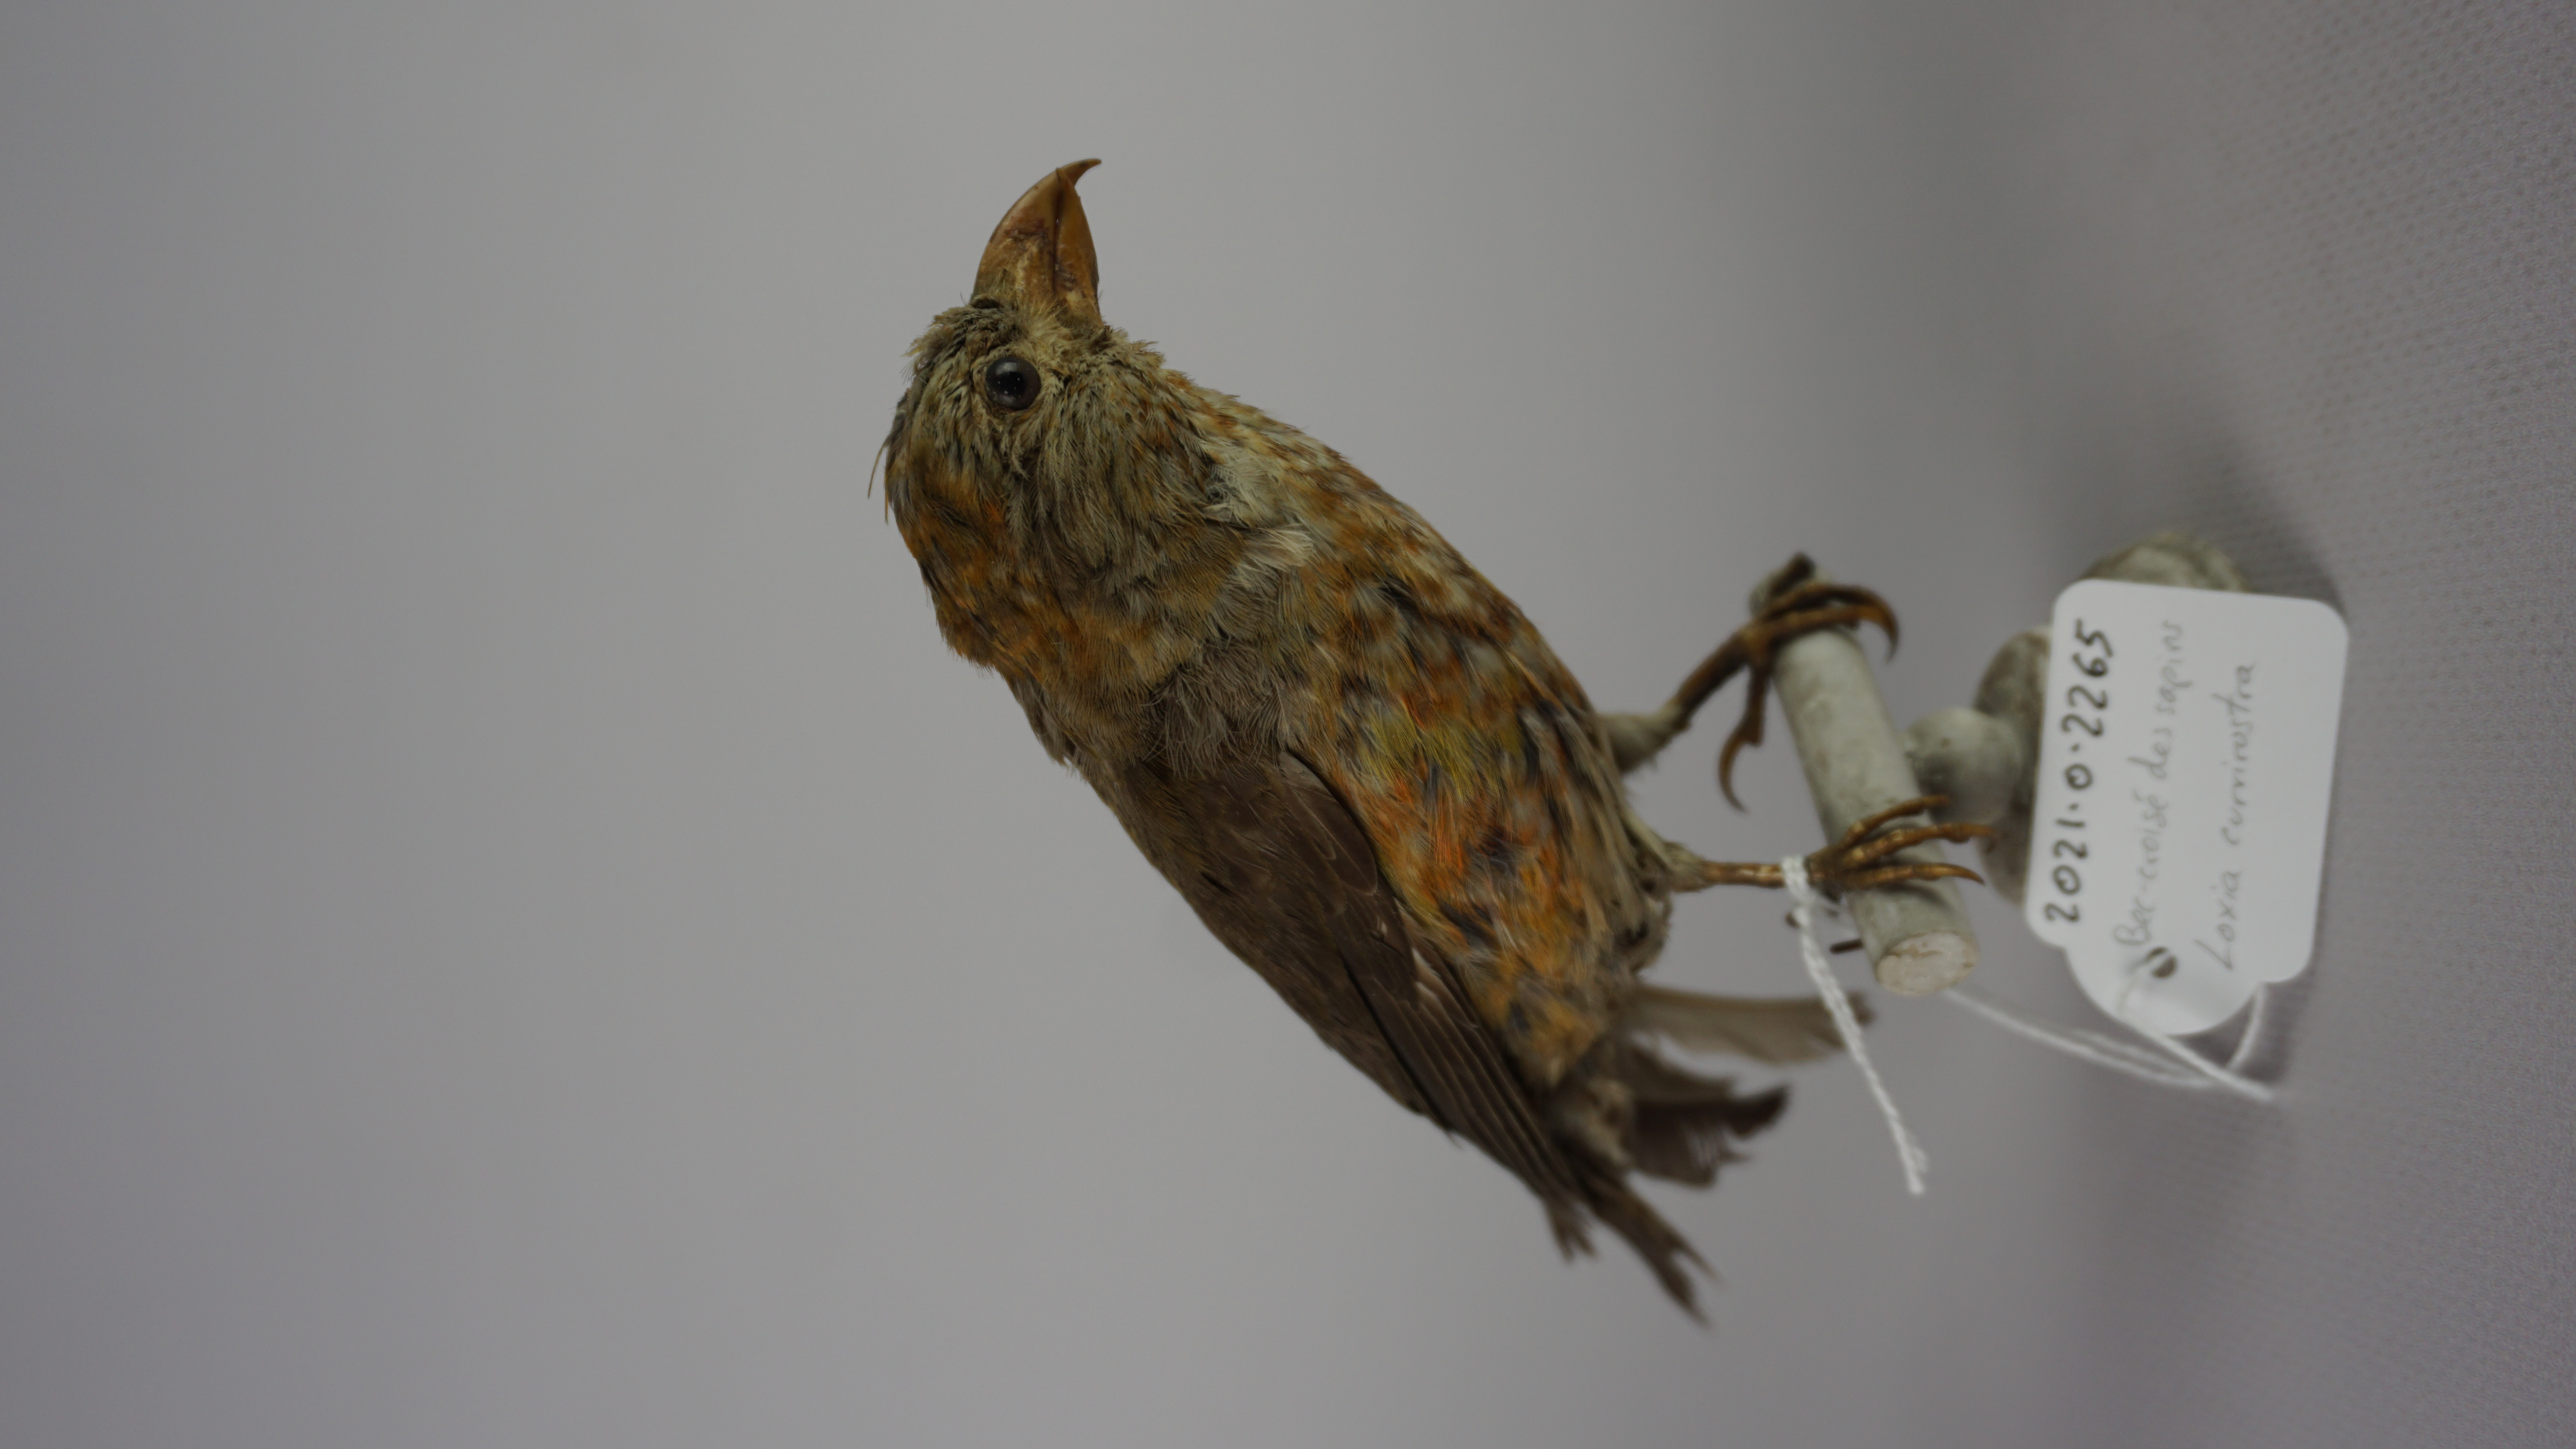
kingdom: Animalia
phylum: Chordata
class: Aves
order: Passeriformes
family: Fringillidae
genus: Loxia
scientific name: Loxia curvirostra
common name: Red crossbill
